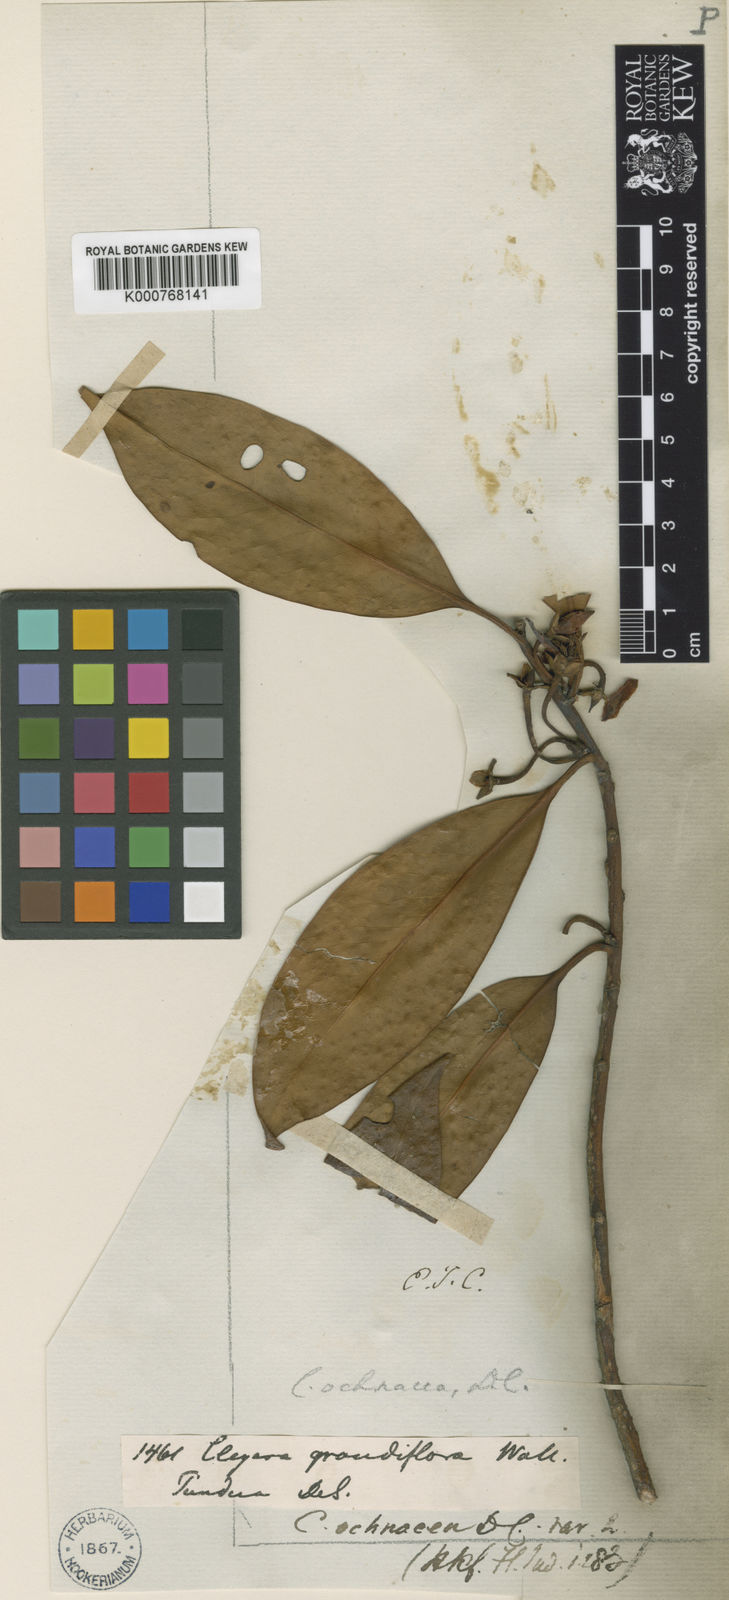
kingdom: Plantae
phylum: Tracheophyta
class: Magnoliopsida
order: Ericales
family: Pentaphylacaceae
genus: Cleyera
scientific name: Cleyera japonica
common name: Sakaki
